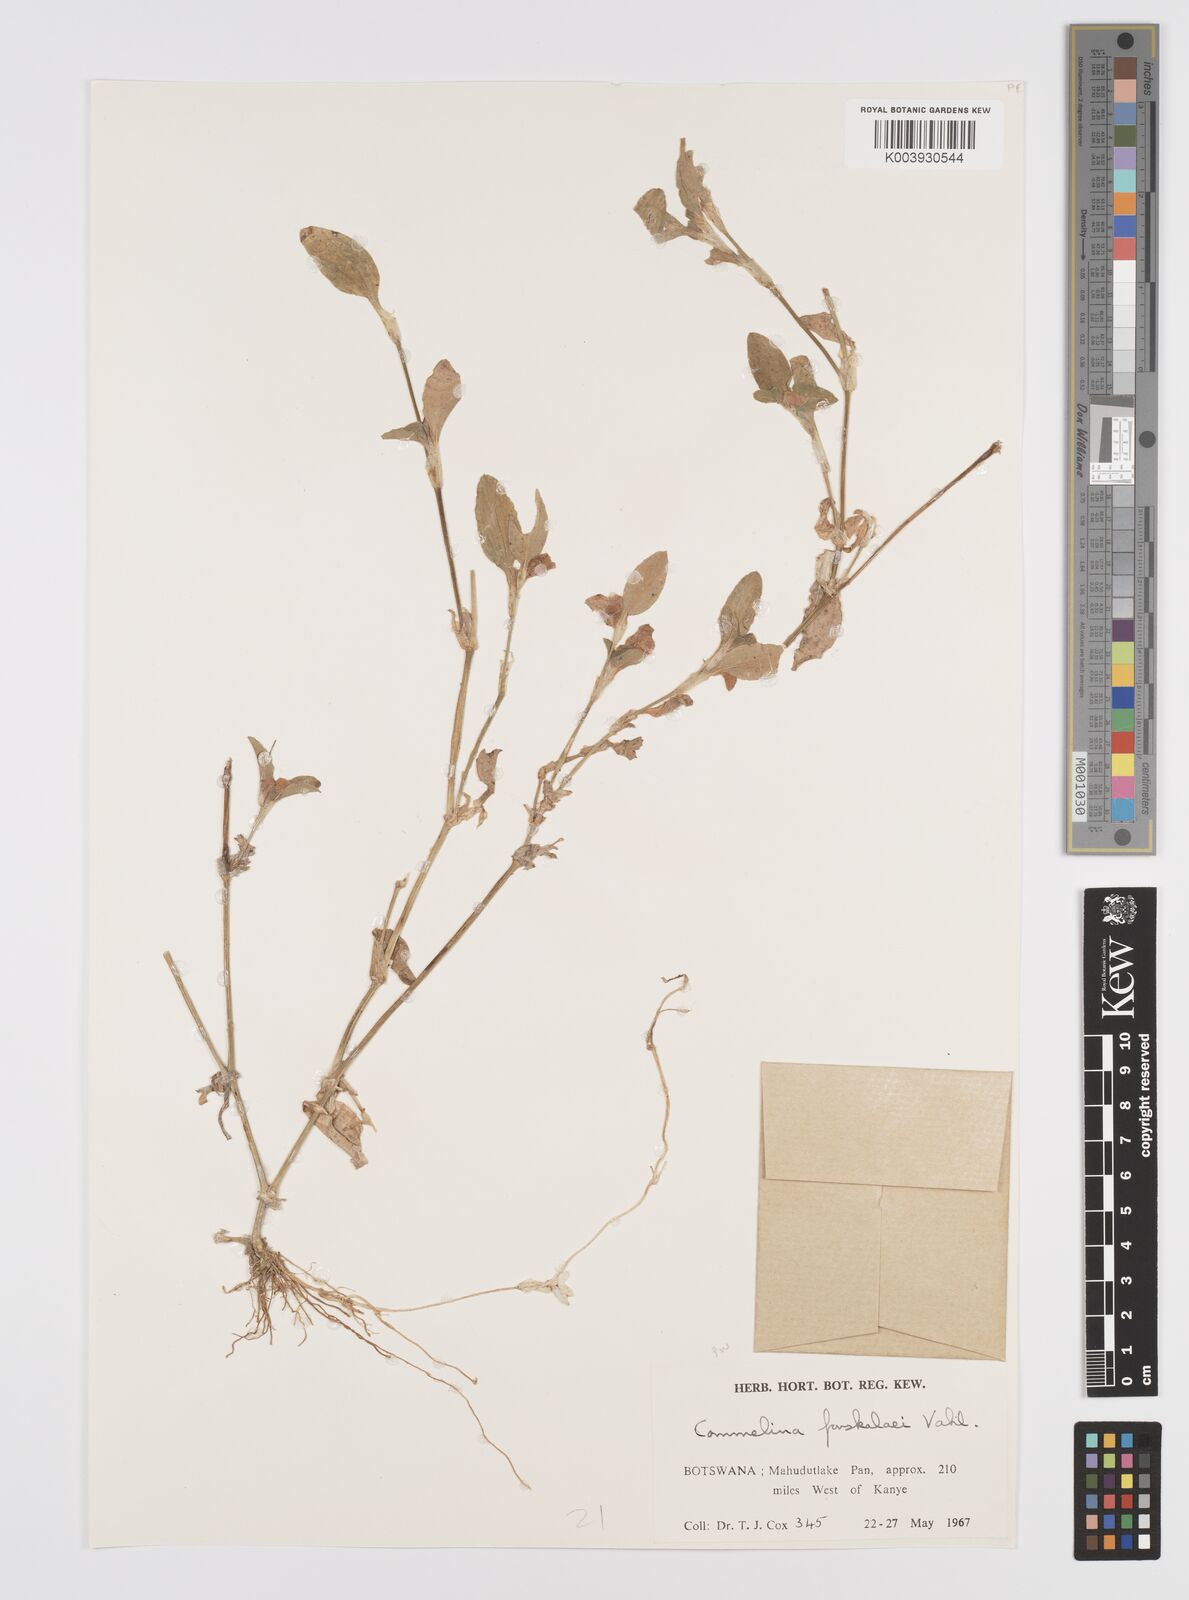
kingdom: Plantae
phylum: Tracheophyta
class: Liliopsida
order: Commelinales
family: Commelinaceae
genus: Commelina
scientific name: Commelina forskaolii
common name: Rat's ear
